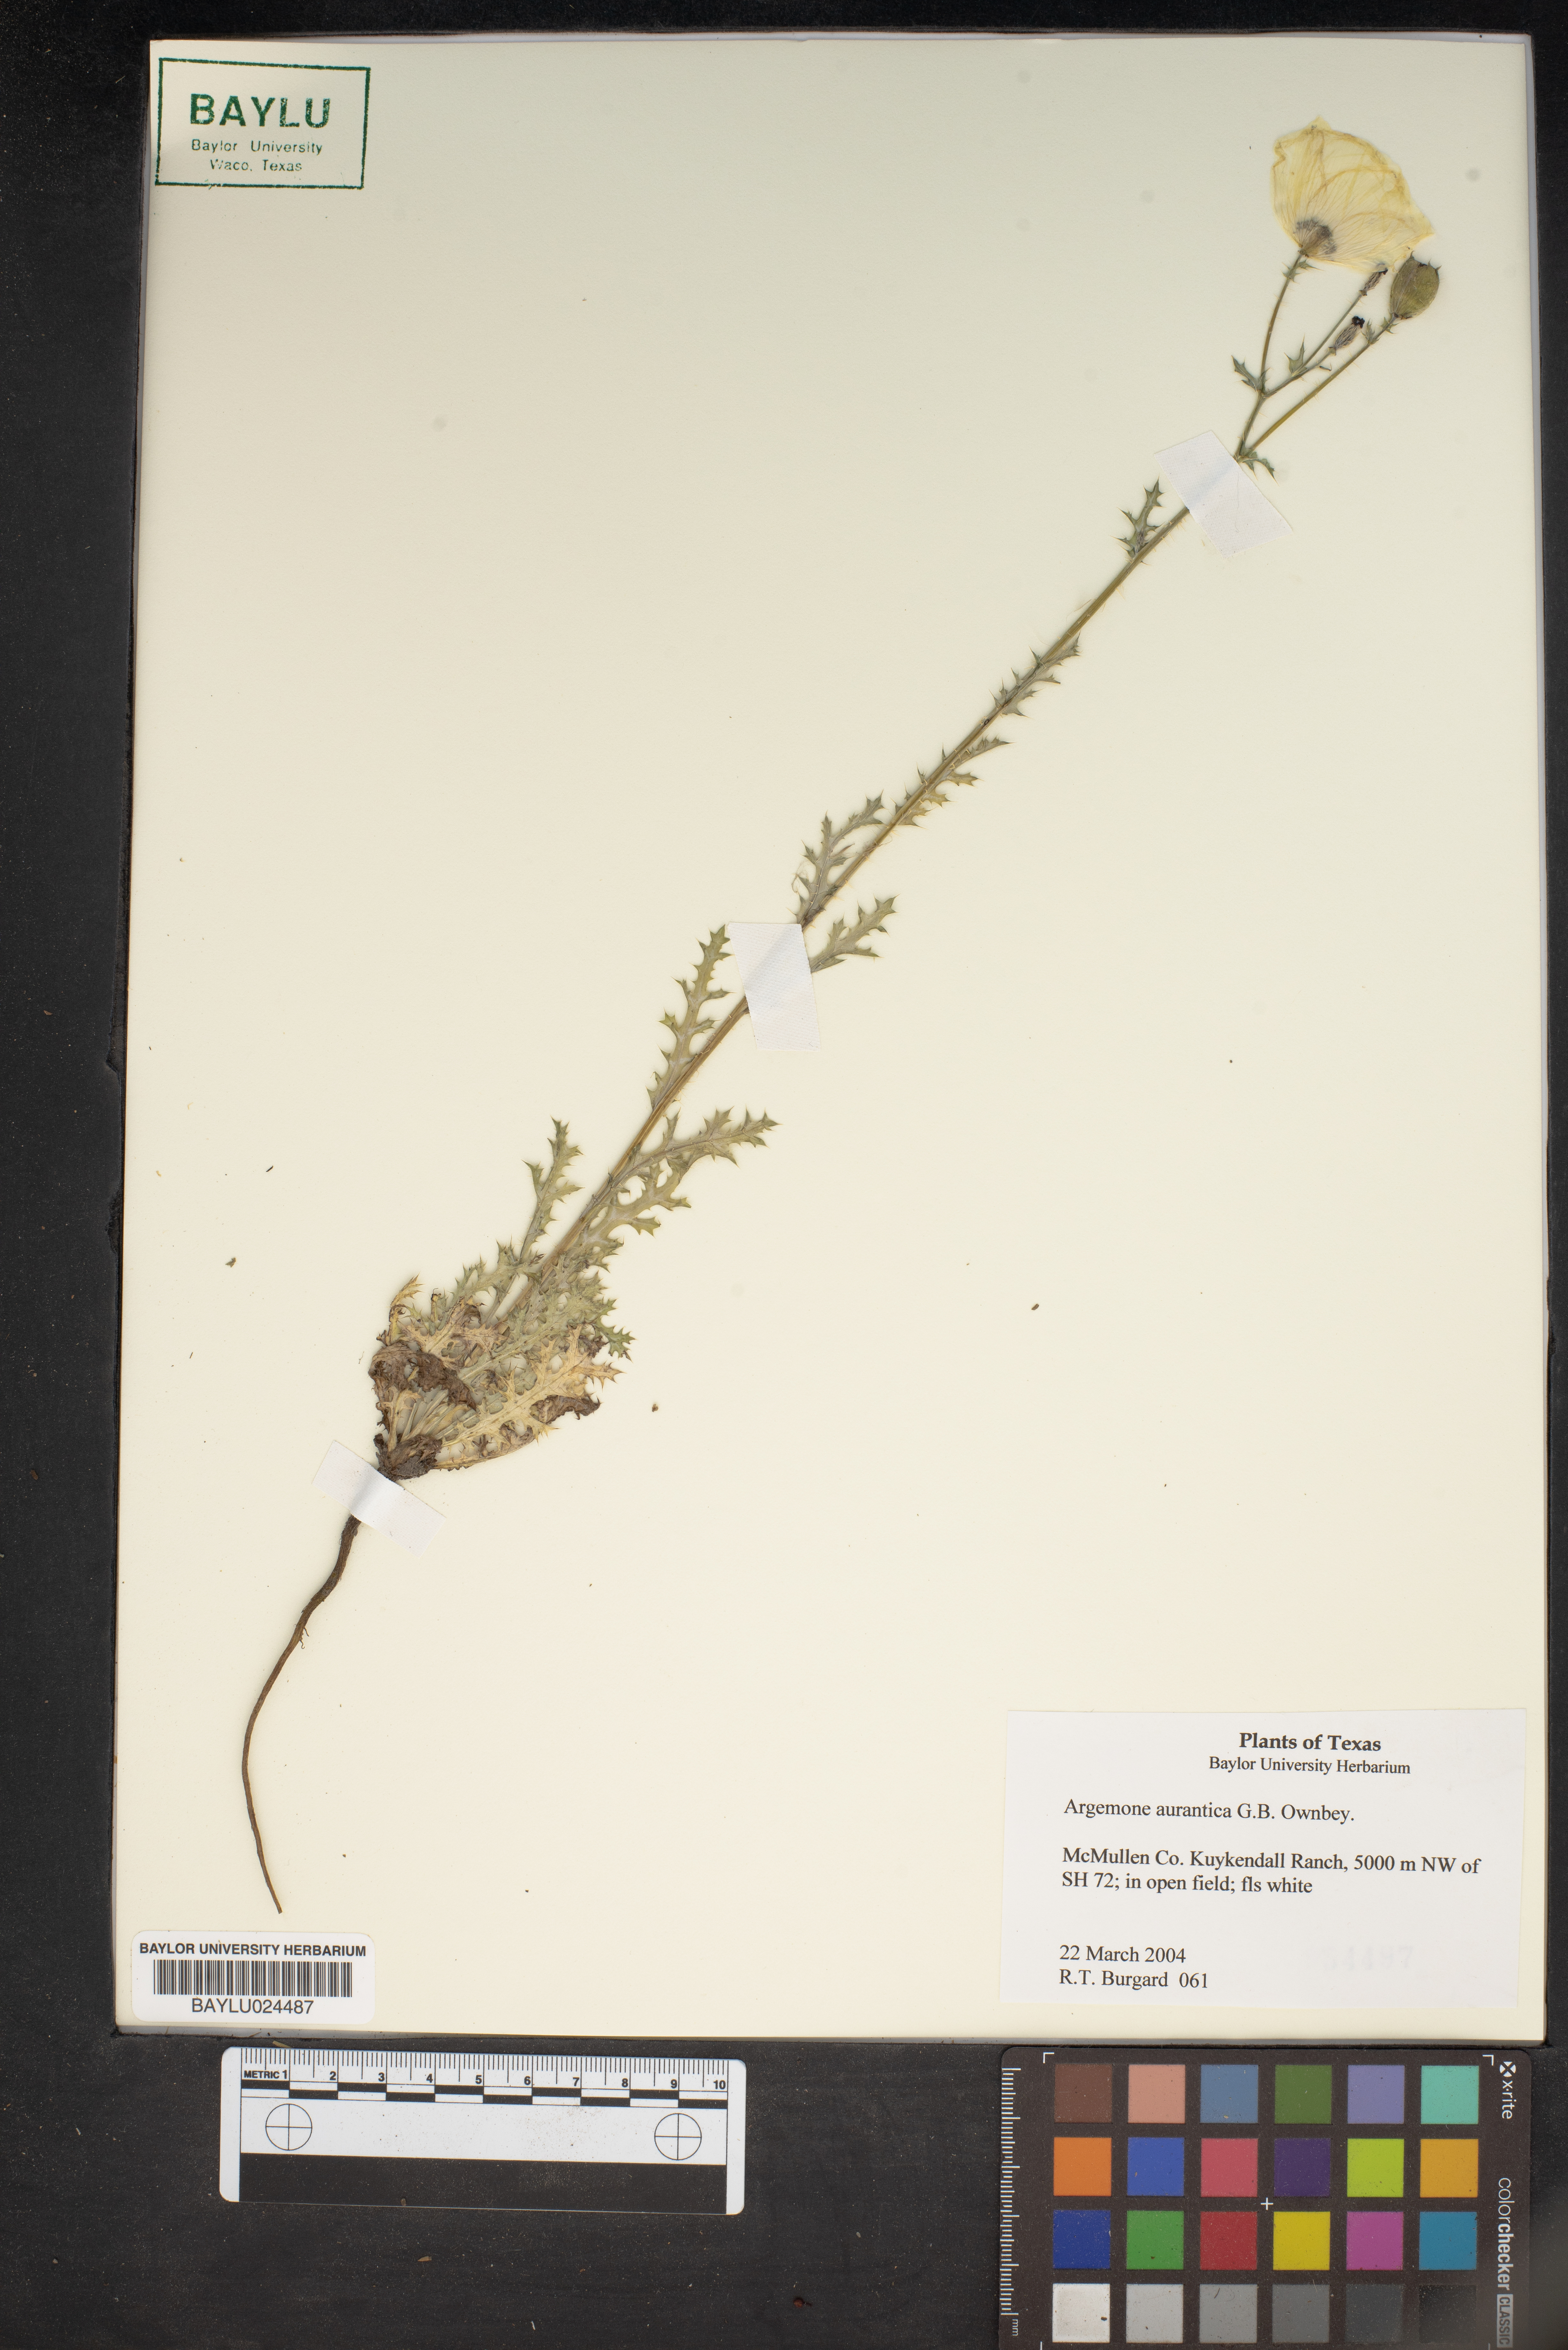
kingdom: Plantae
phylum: Tracheophyta
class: Magnoliopsida
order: Ranunculales
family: Papaveraceae
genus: Argemone
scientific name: Argemone aurantiaca
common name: Texas prickly-poppy
